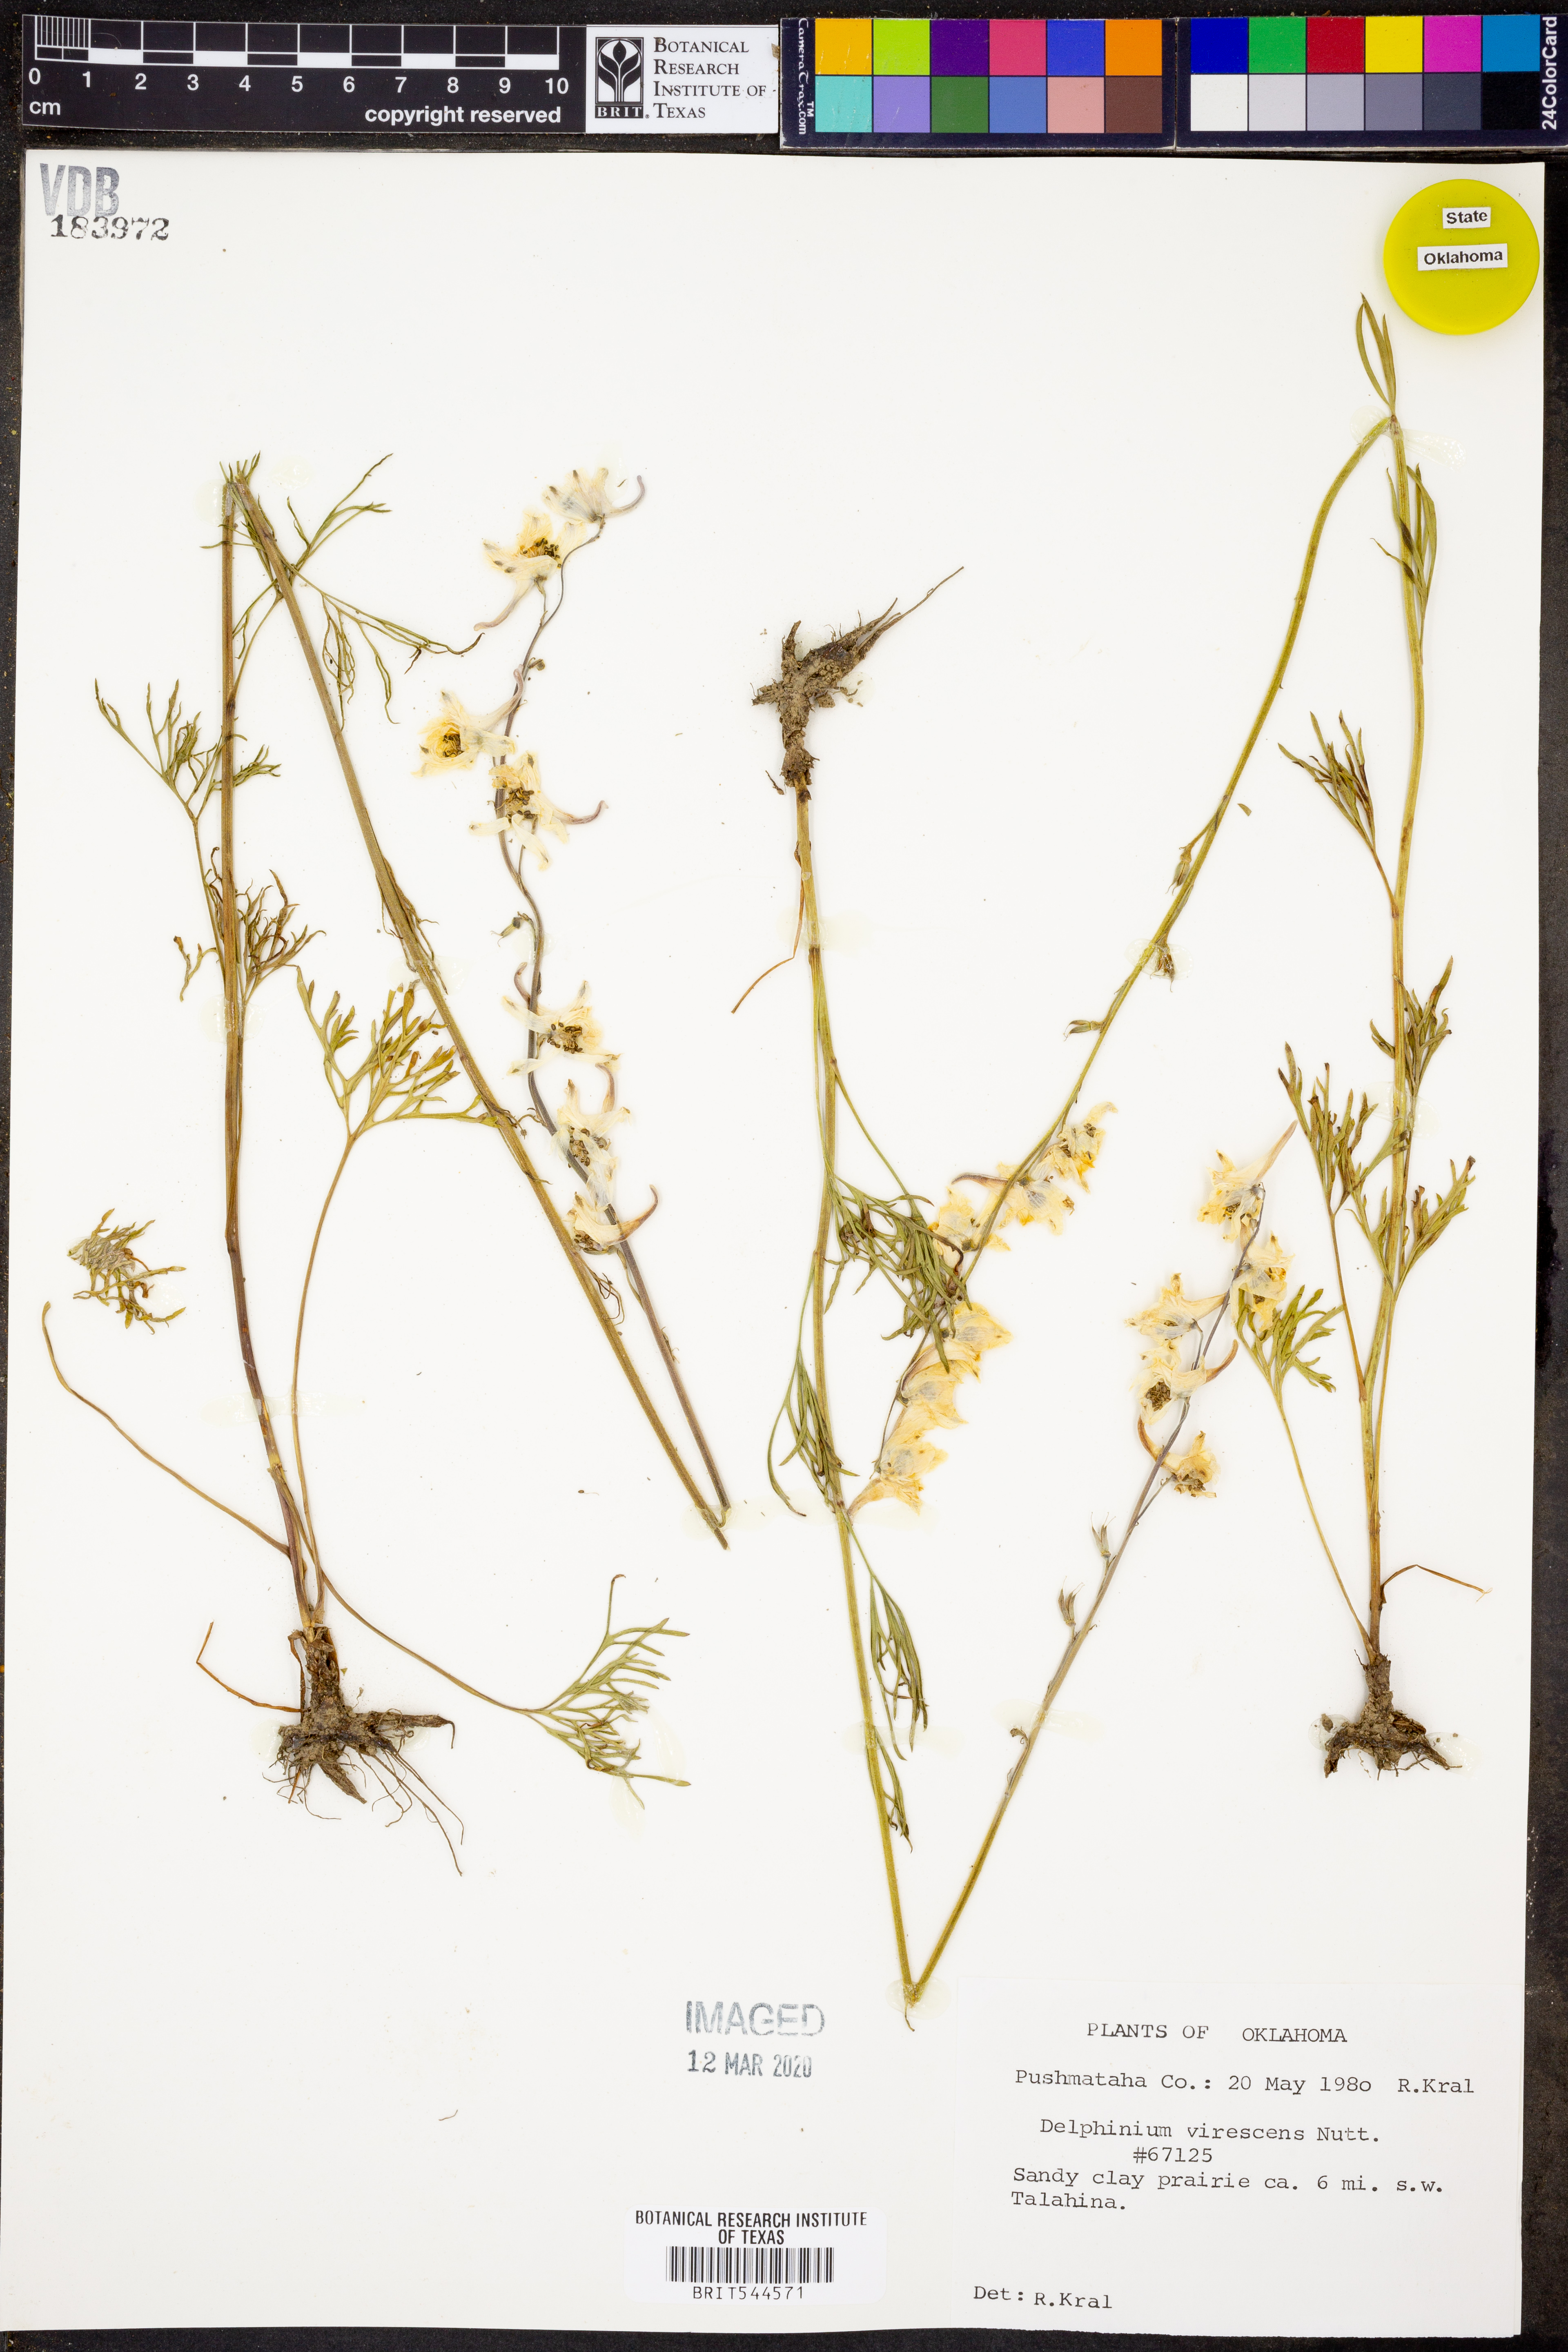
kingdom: Plantae
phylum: Tracheophyta
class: Magnoliopsida
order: Ranunculales
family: Ranunculaceae
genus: Delphinium
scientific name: Delphinium carolinianum
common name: Carolina larkspur
